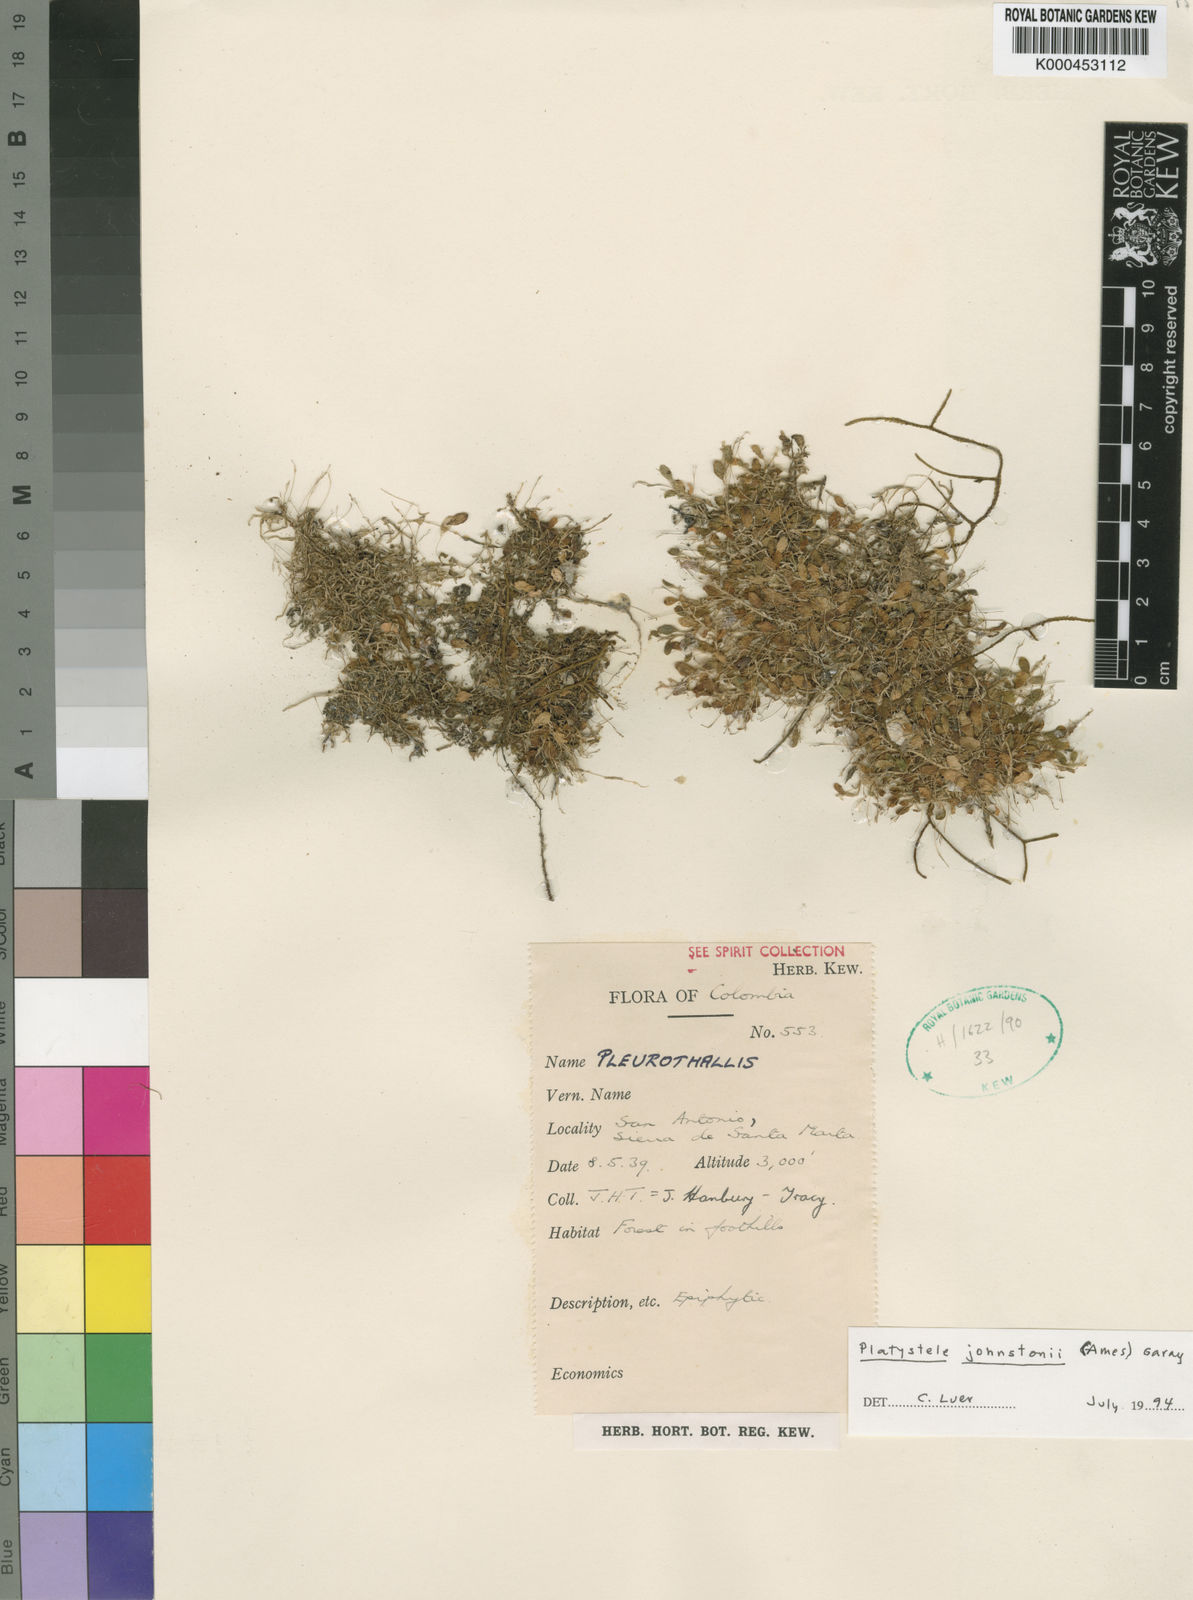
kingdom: Plantae
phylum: Tracheophyta
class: Liliopsida
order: Asparagales
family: Orchidaceae
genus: Platystele
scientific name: Platystele johnstonii
